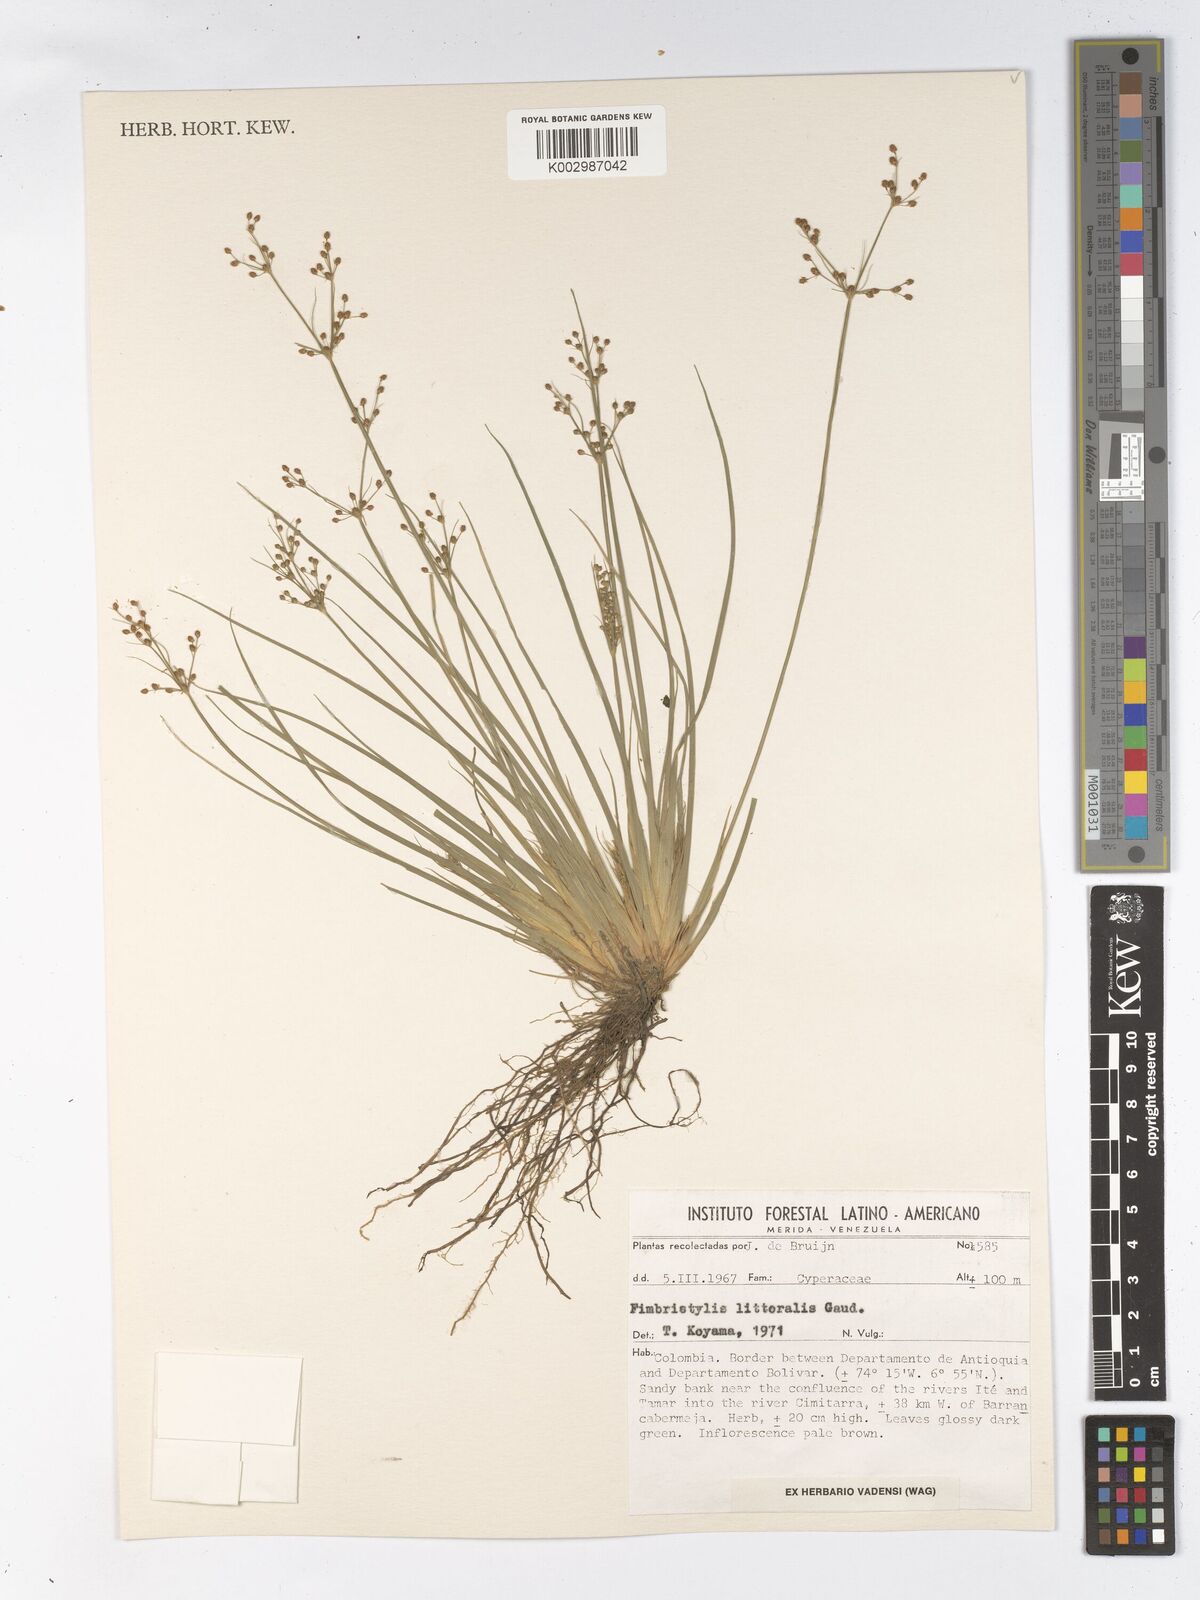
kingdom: Plantae
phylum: Tracheophyta
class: Liliopsida
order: Poales
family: Cyperaceae
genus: Fimbristylis
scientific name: Fimbristylis littoralis
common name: Fimbry
